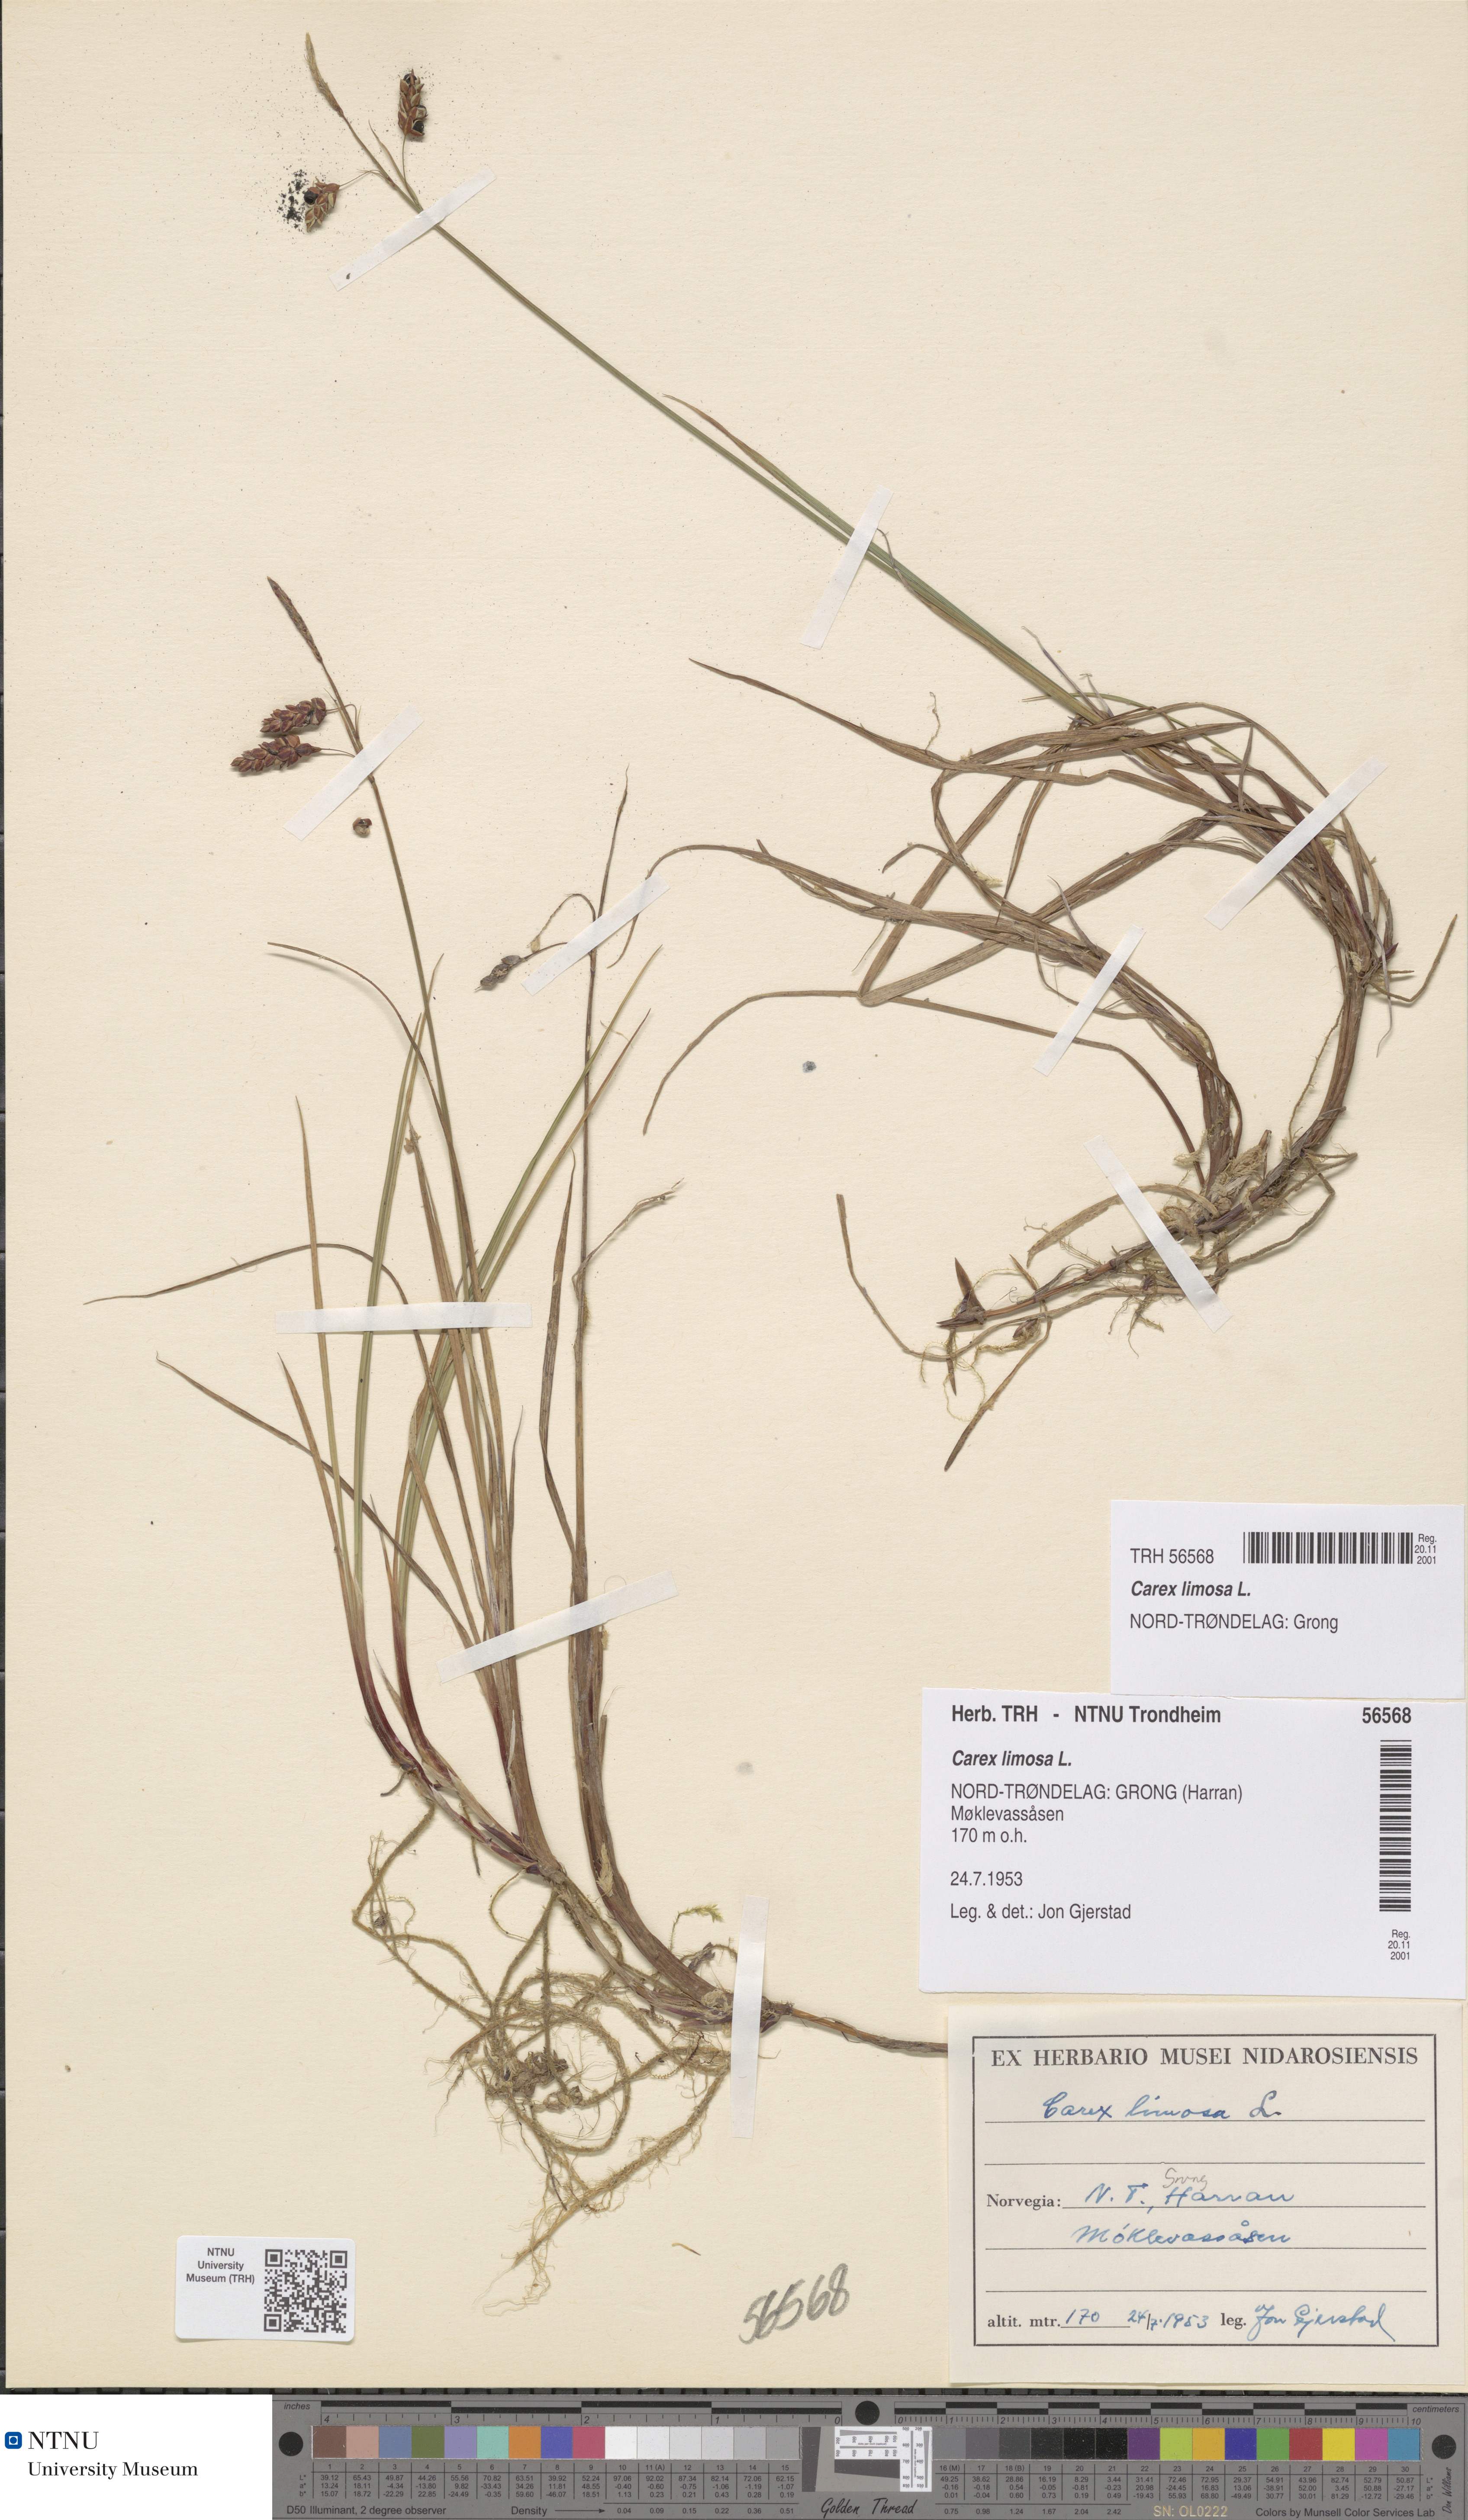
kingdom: Plantae
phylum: Tracheophyta
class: Liliopsida
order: Poales
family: Cyperaceae
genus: Carex
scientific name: Carex limosa
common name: Bog sedge
